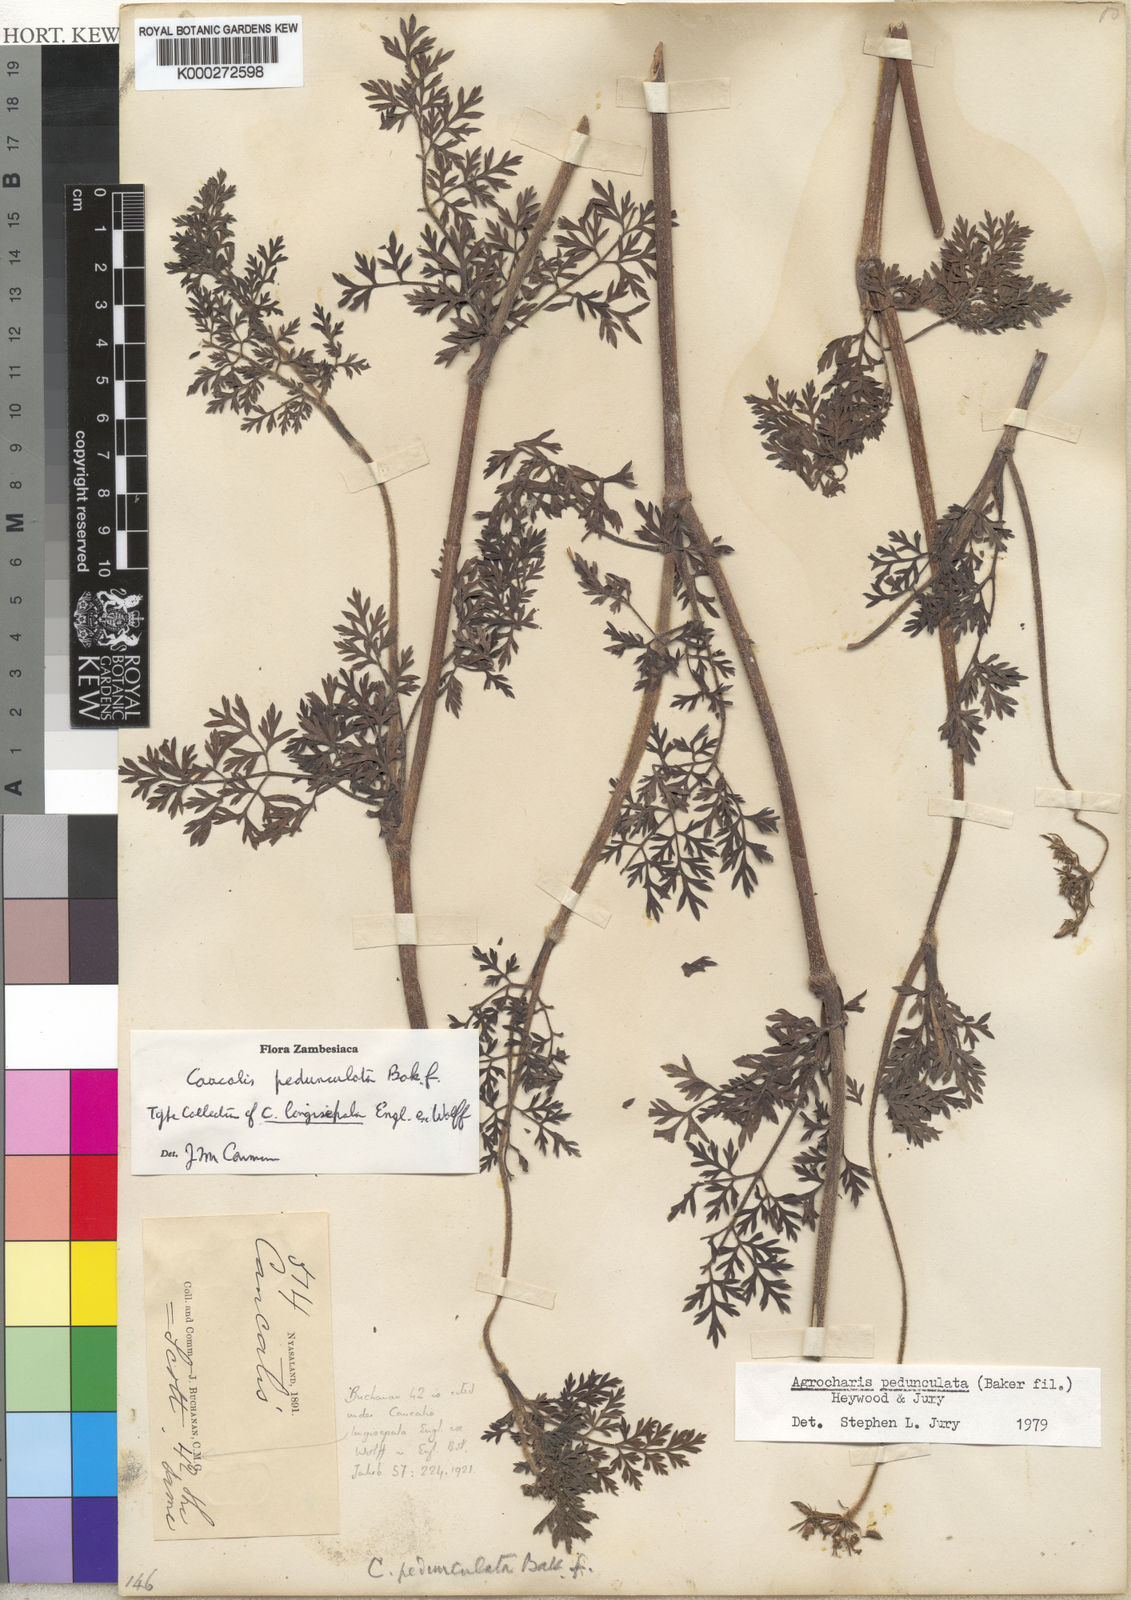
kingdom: Plantae
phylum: Tracheophyta
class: Magnoliopsida
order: Apiales
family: Apiaceae
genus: Daucus
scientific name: Daucus pedunculatus
